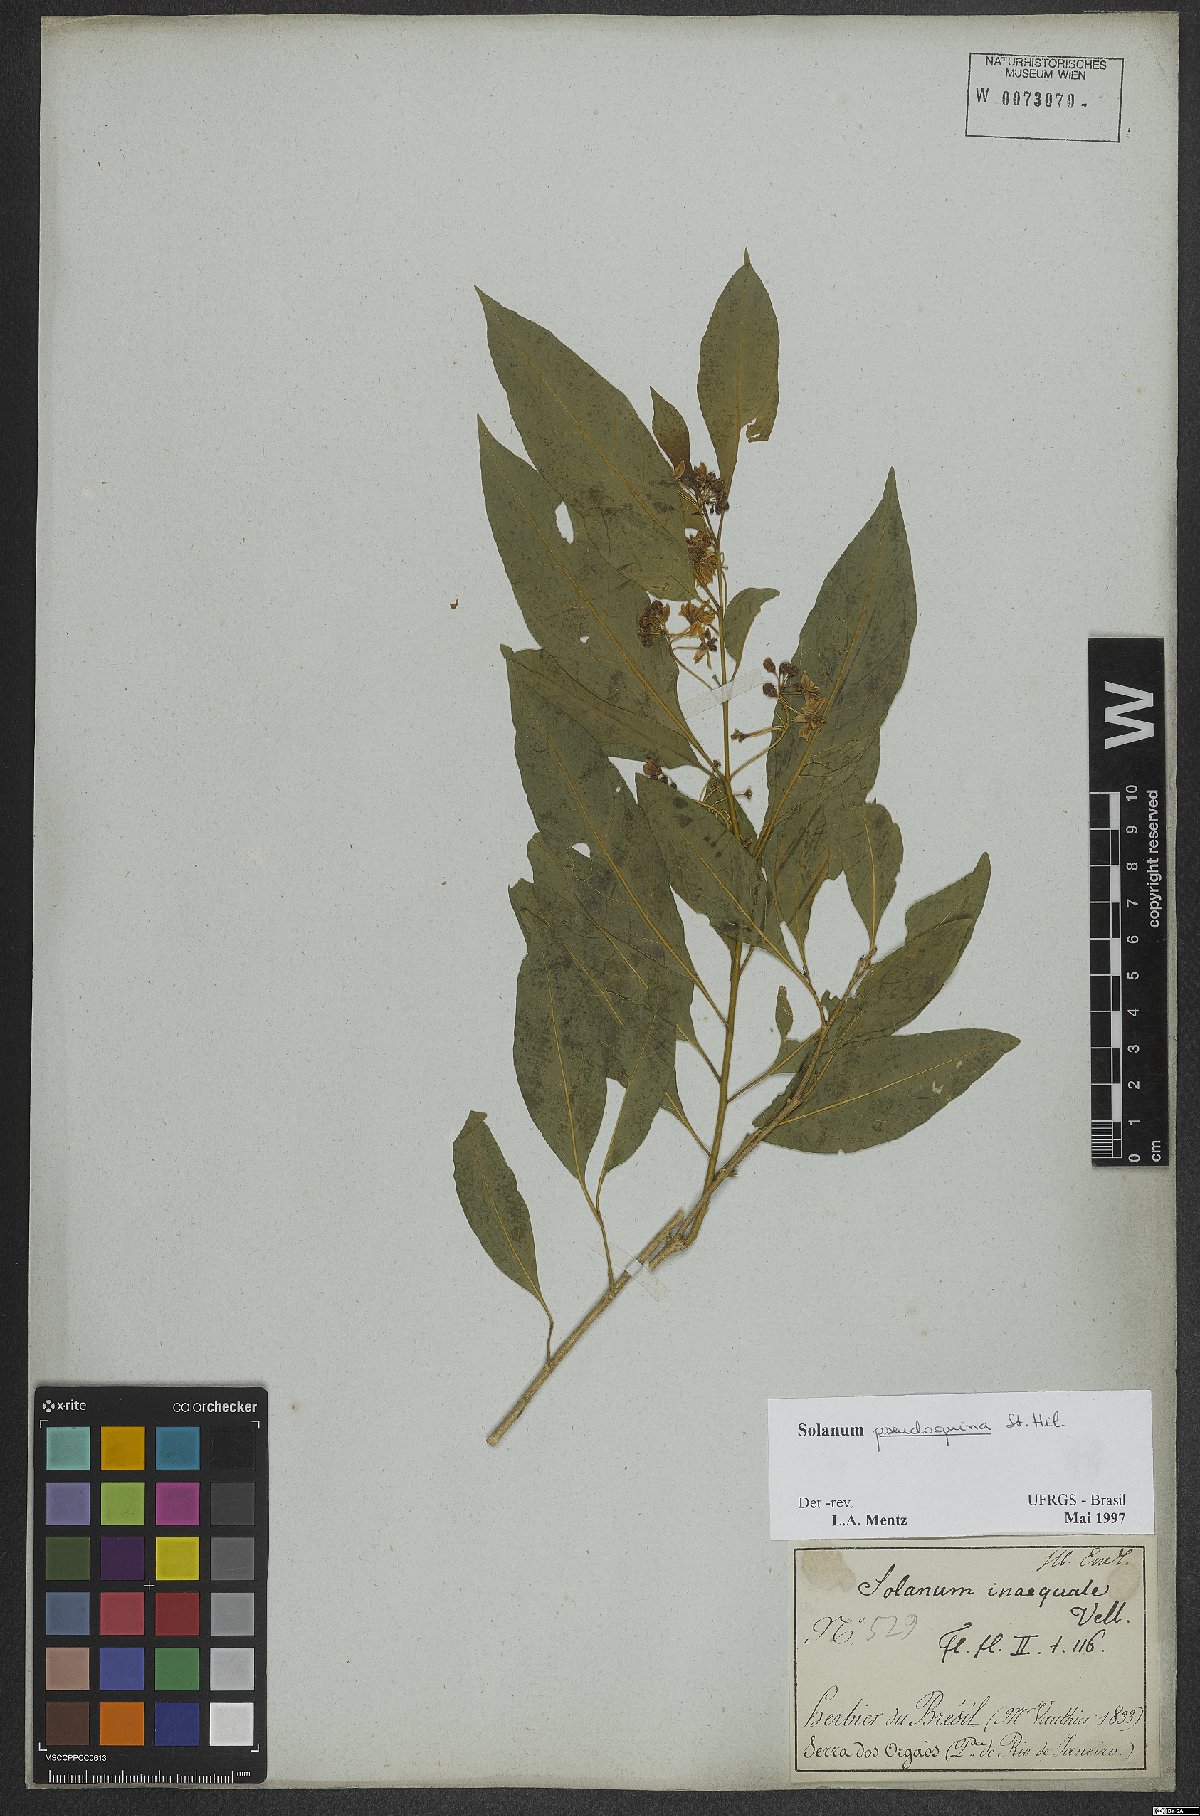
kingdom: Plantae
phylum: Tracheophyta
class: Magnoliopsida
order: Solanales
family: Solanaceae
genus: Solanum
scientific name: Solanum pseudoquina
